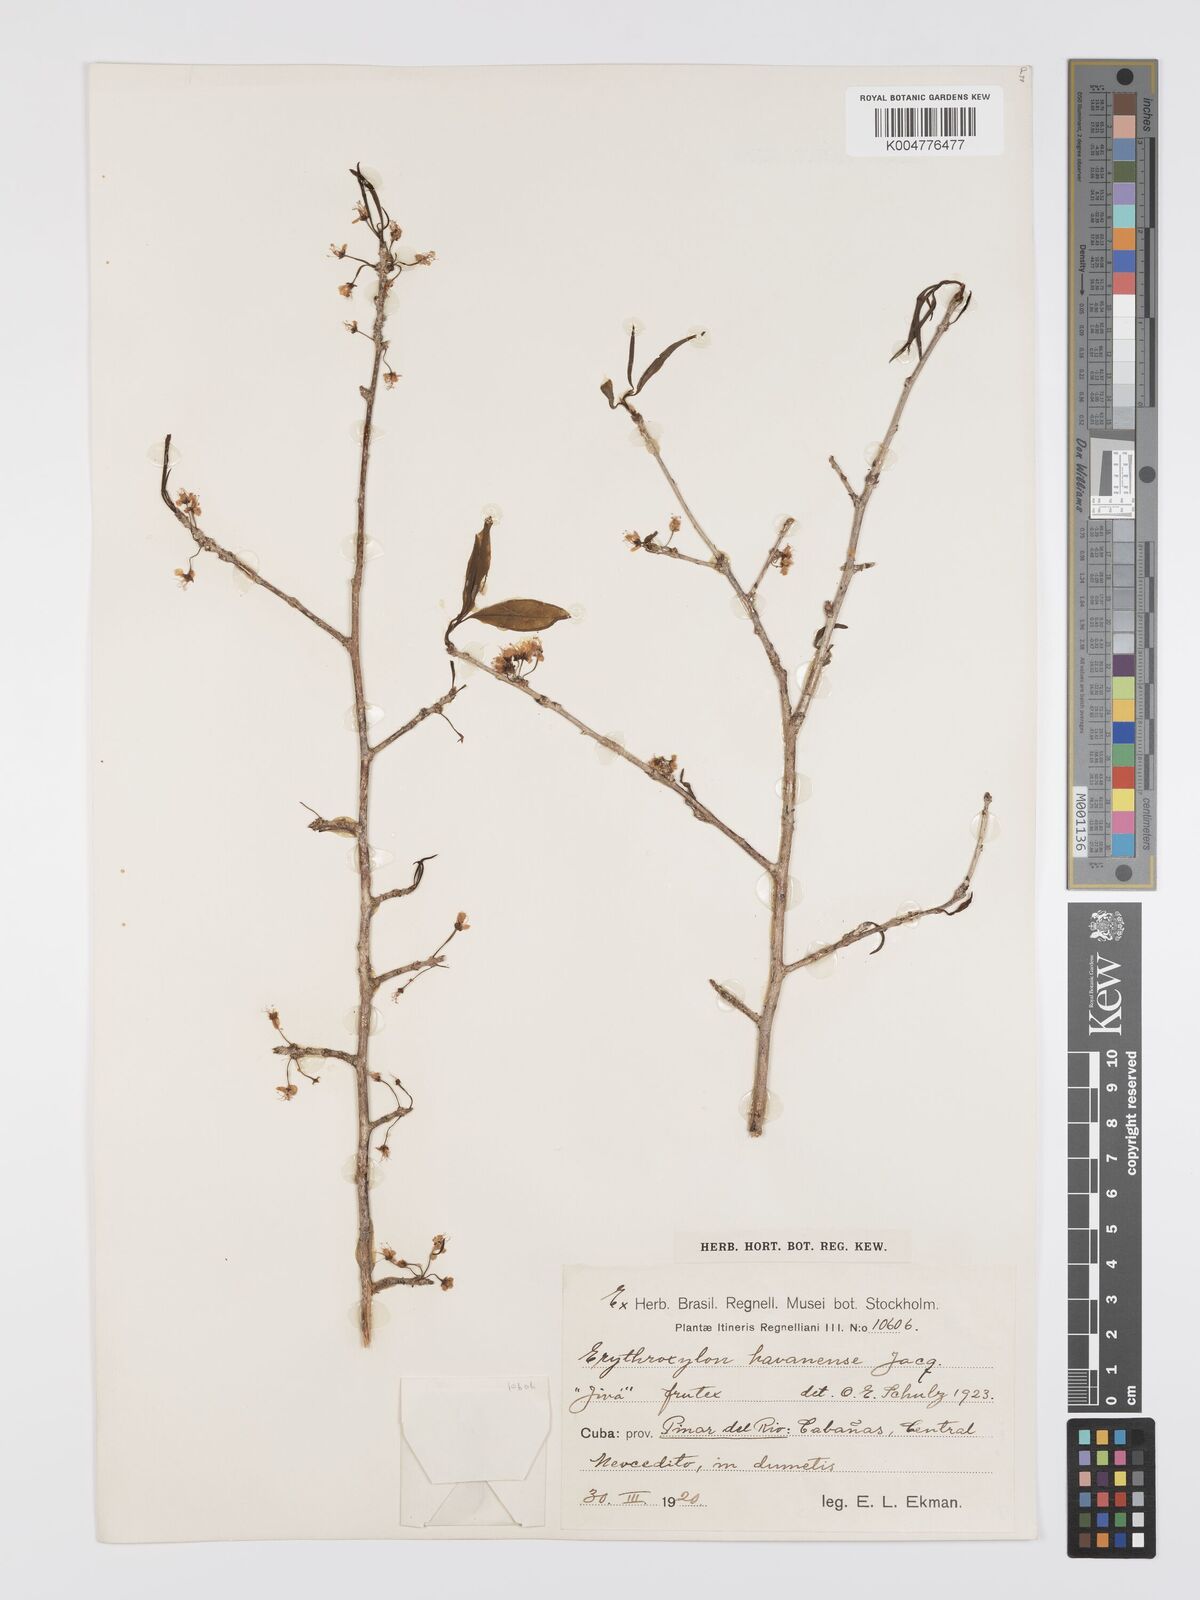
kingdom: Plantae
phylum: Tracheophyta
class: Magnoliopsida
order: Malpighiales
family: Erythroxylaceae
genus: Erythroxylum
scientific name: Erythroxylum
